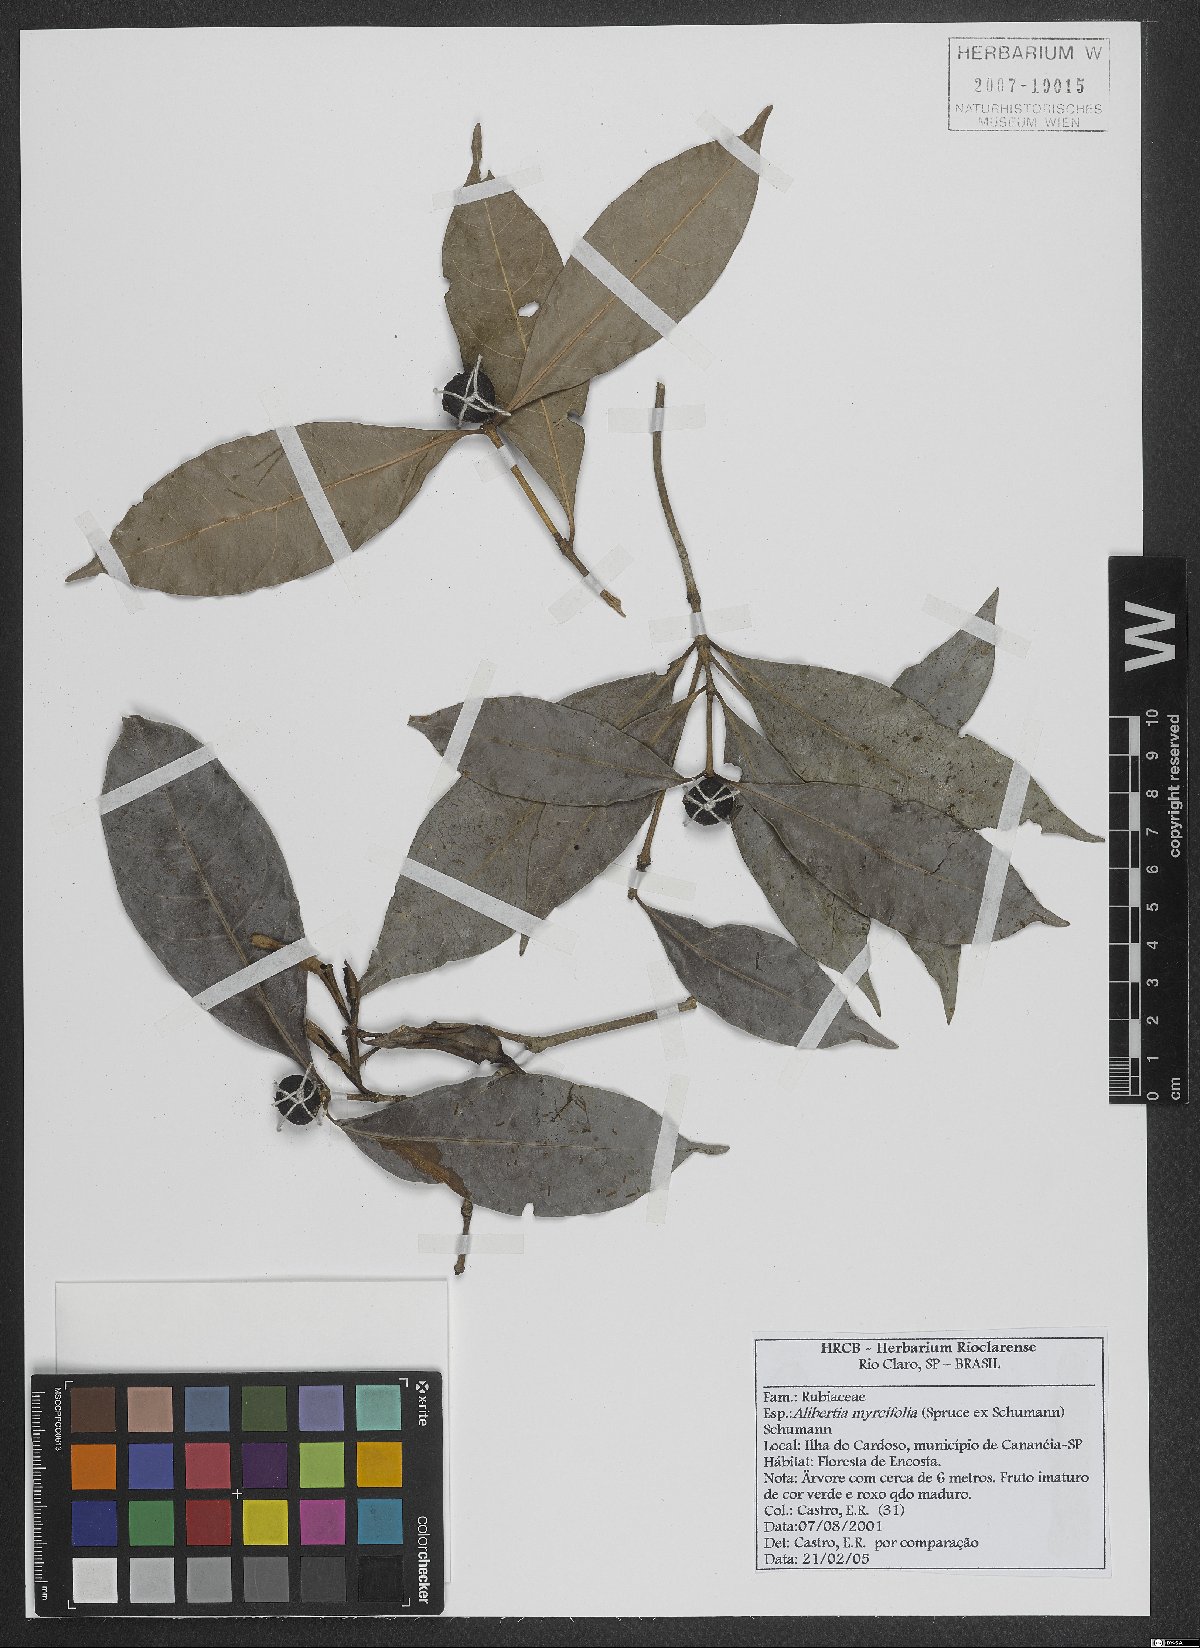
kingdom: Plantae
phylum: Tracheophyta
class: Magnoliopsida
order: Gentianales
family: Rubiaceae
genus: Cordiera
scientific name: Cordiera myrciifolia
